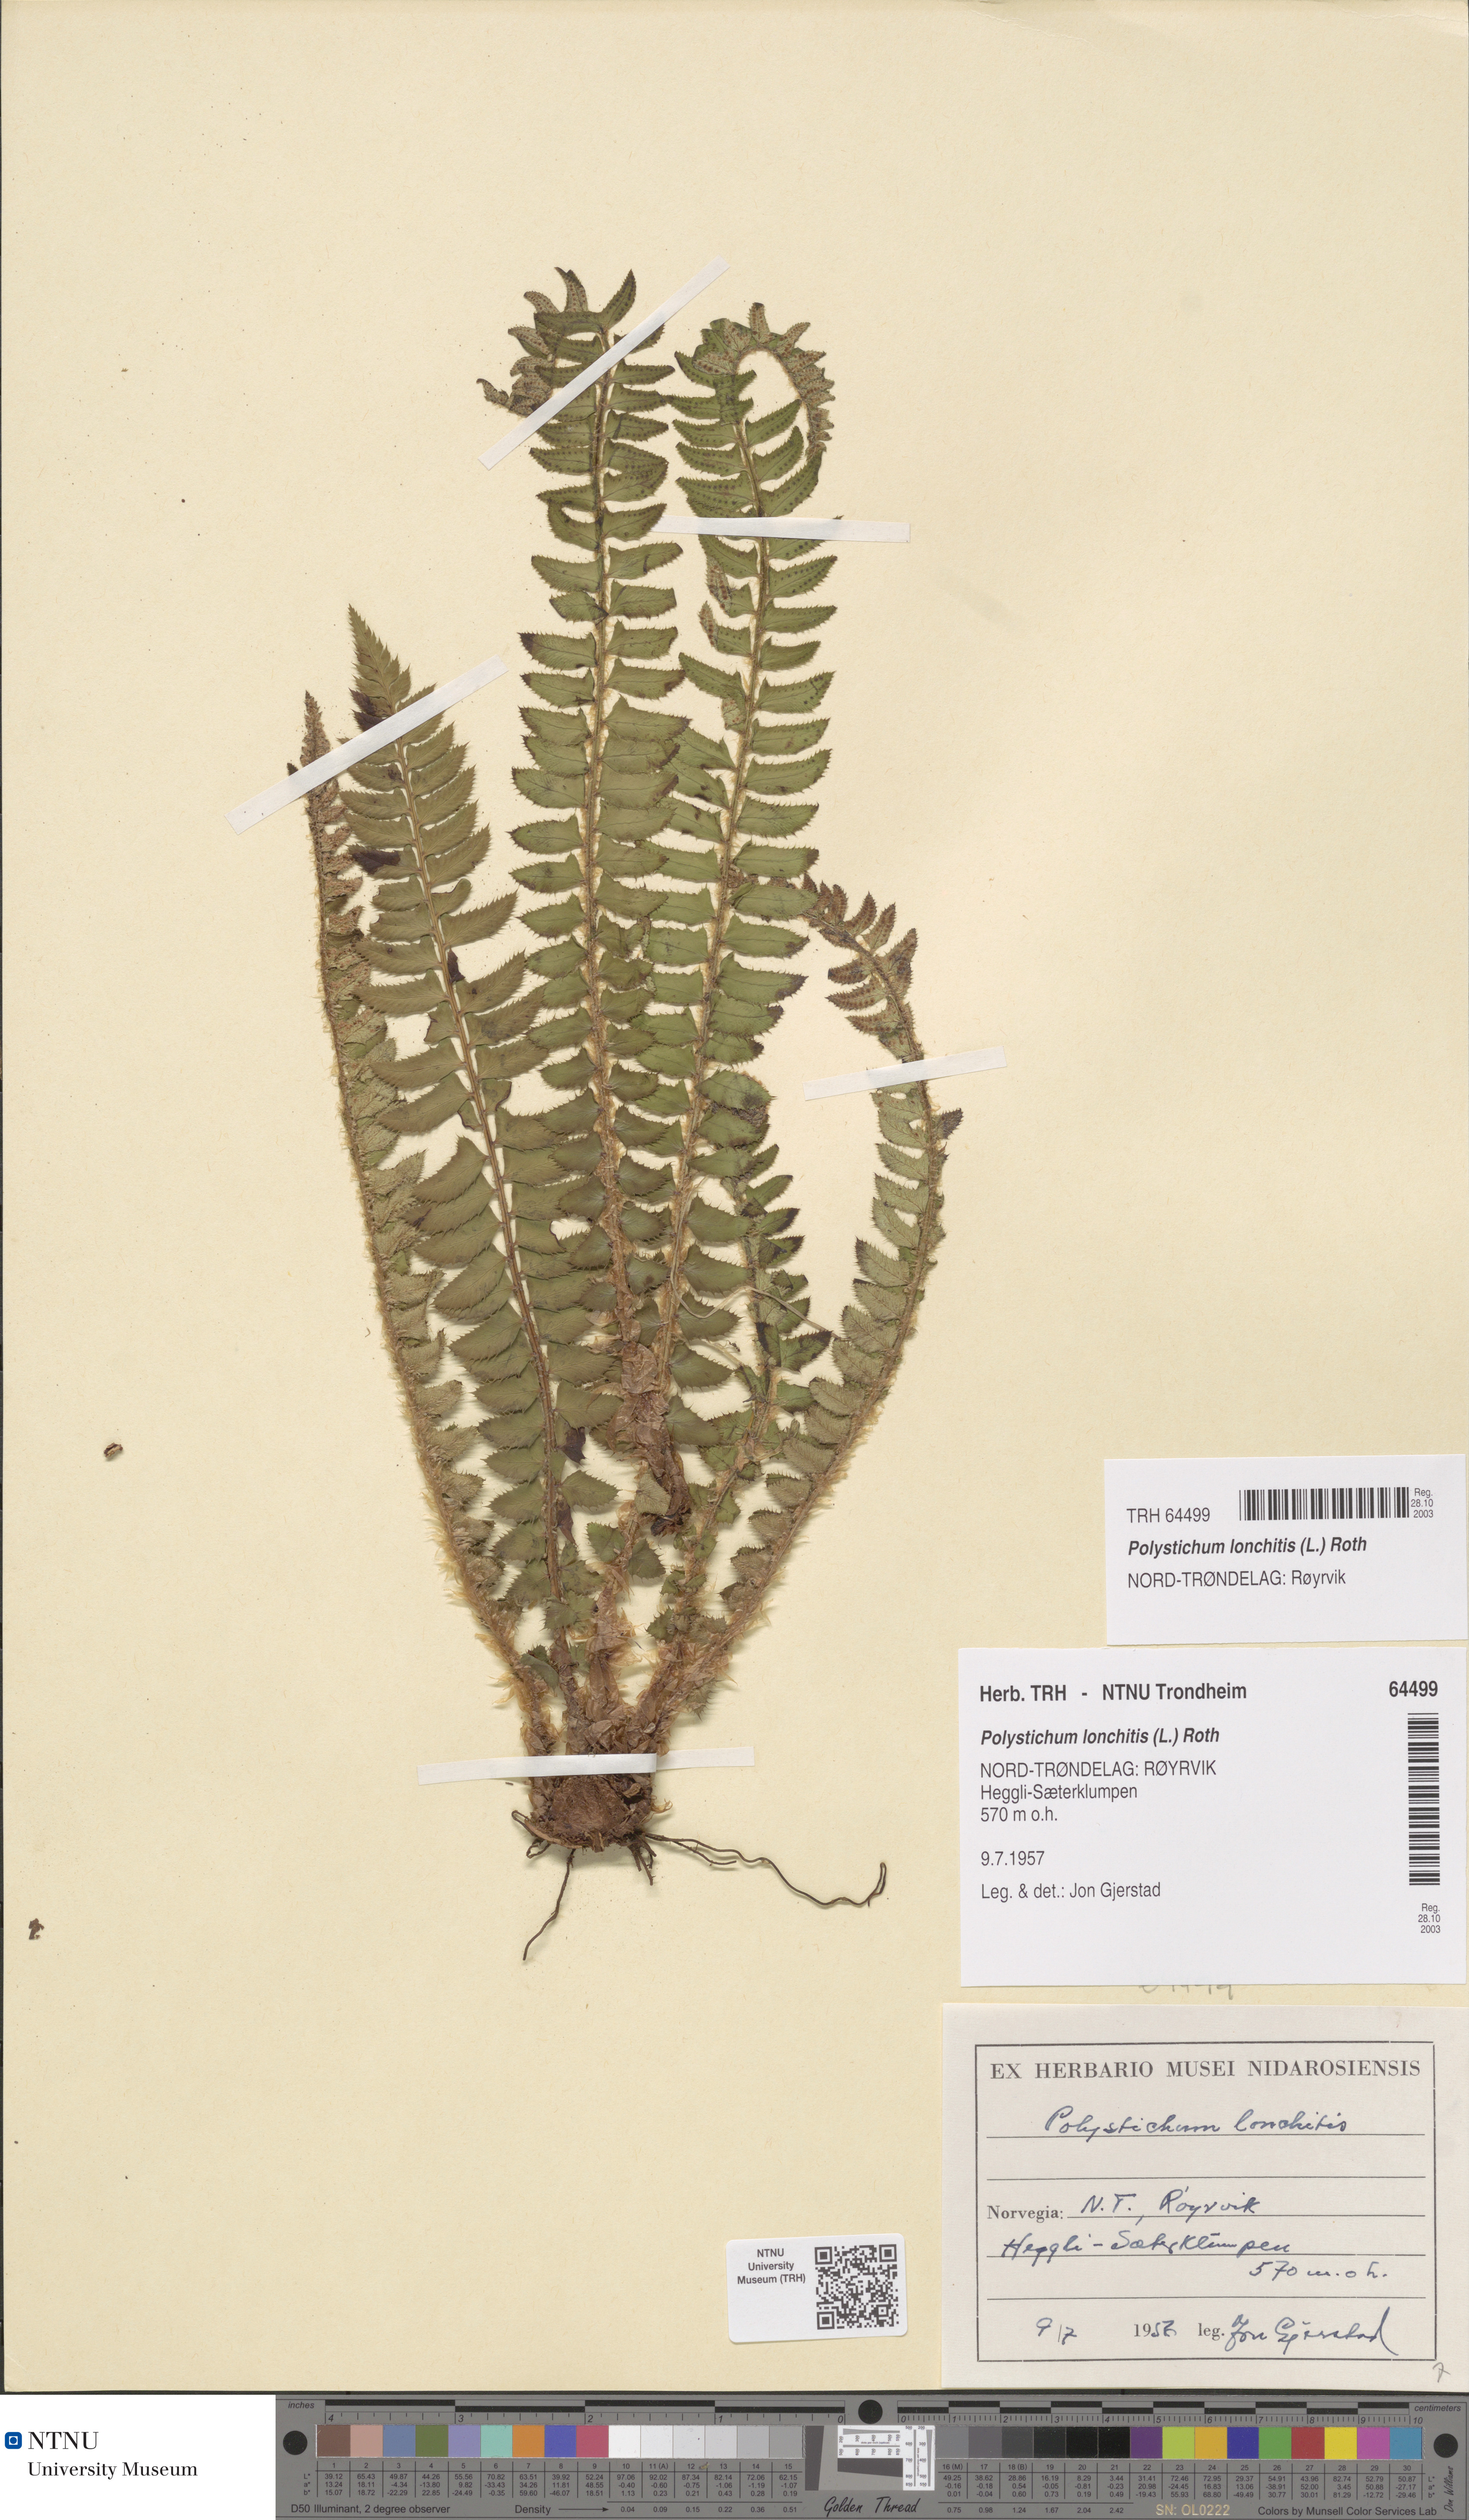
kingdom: Plantae
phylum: Tracheophyta
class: Polypodiopsida
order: Polypodiales
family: Dryopteridaceae
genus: Polystichum
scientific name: Polystichum lonchitis
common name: Holly fern
